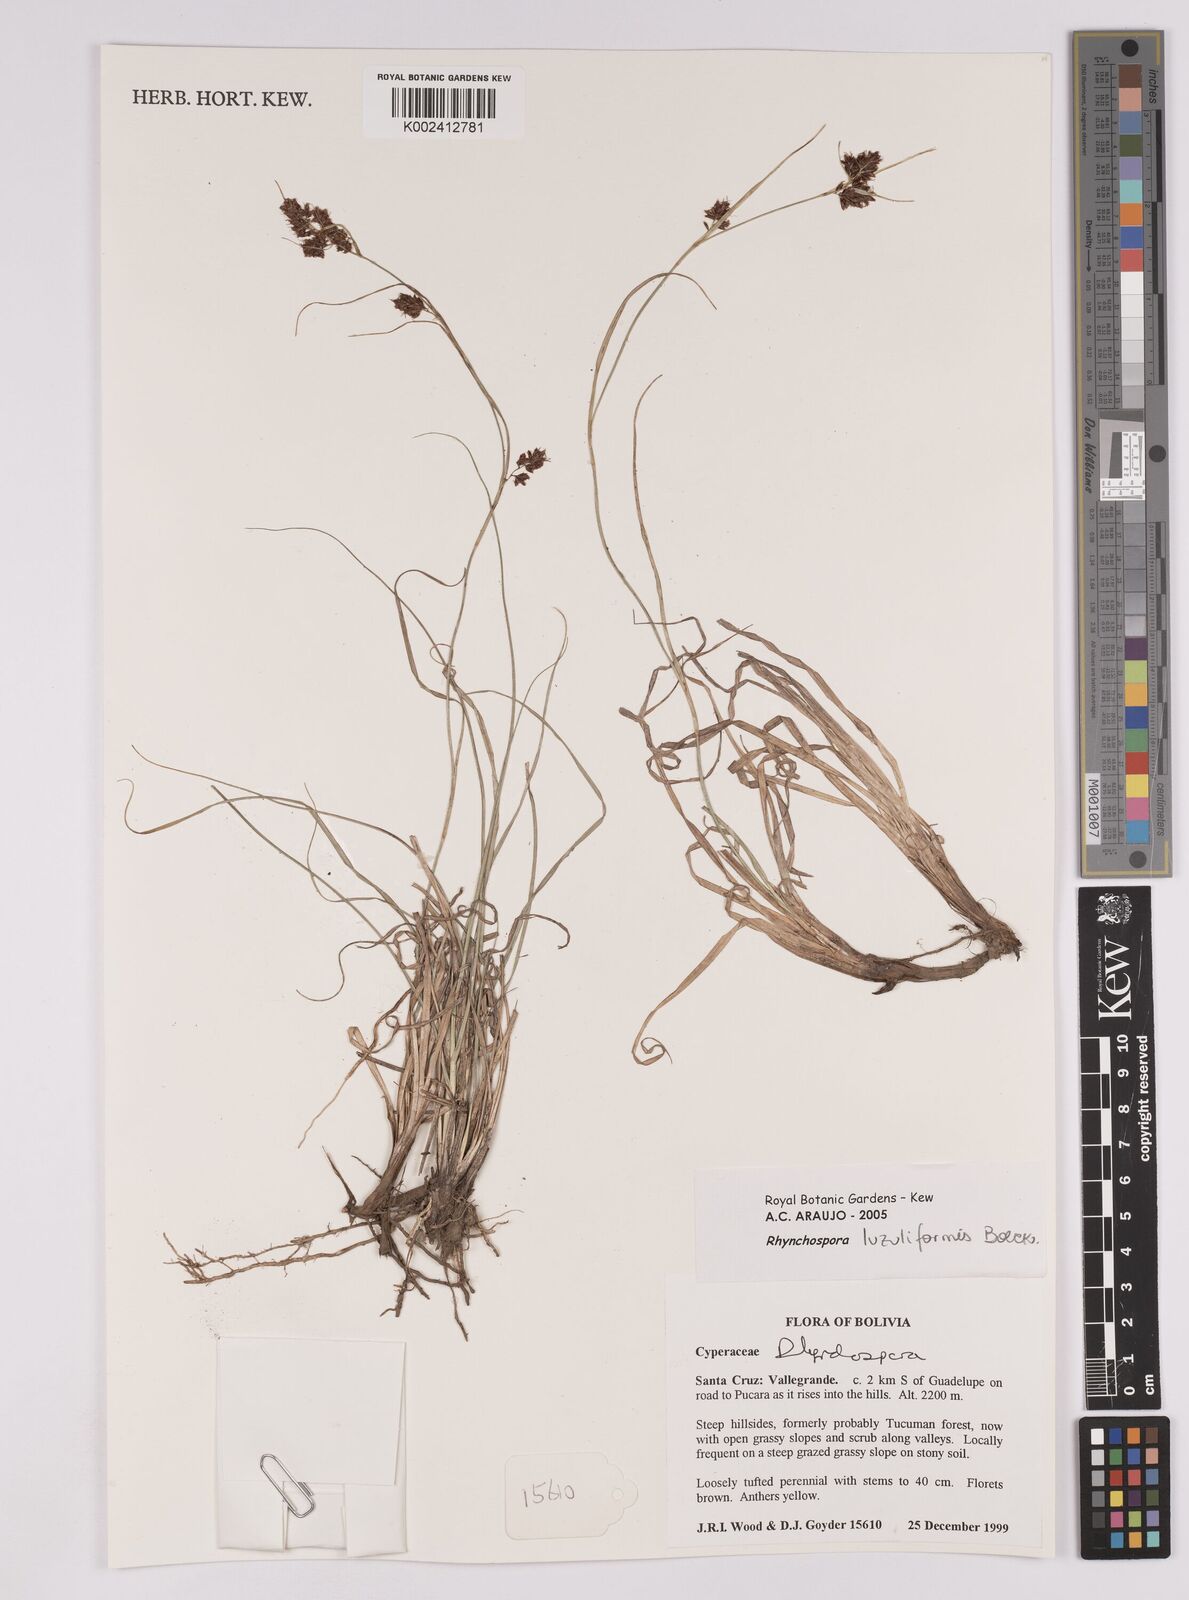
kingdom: Plantae
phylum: Tracheophyta
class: Liliopsida
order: Poales
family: Cyperaceae
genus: Rhynchospora
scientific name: Rhynchospora
